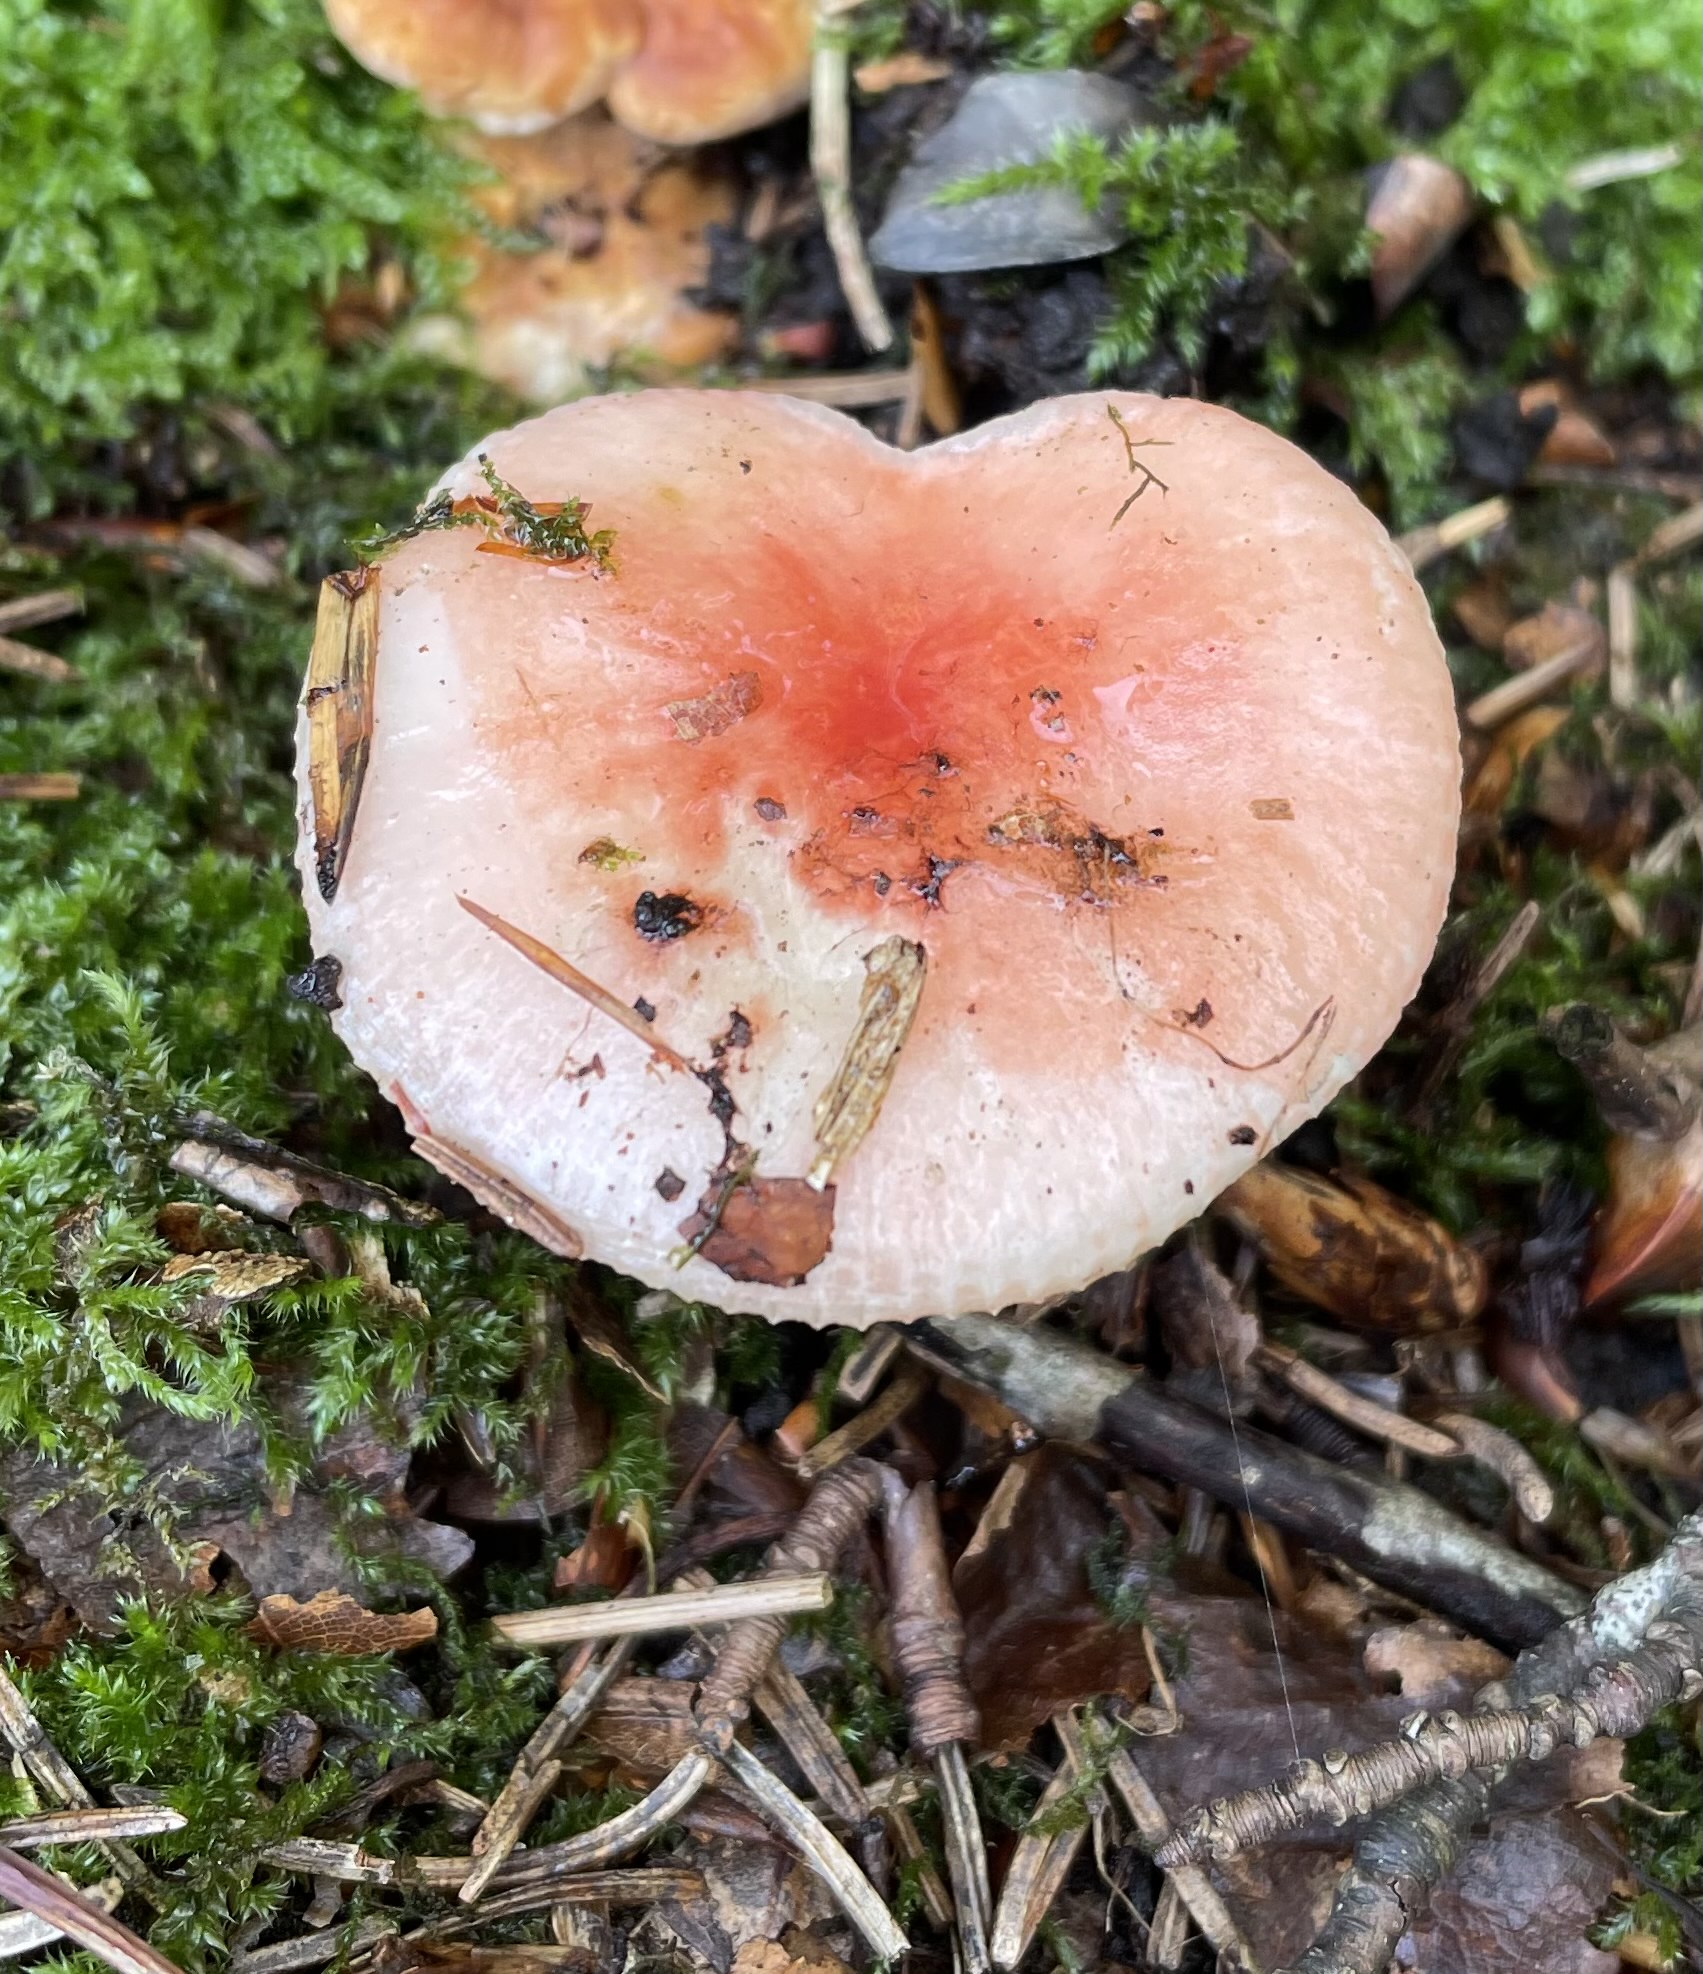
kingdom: Fungi
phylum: Basidiomycota
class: Agaricomycetes
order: Russulales
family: Russulaceae
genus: Russula
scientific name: Russula
